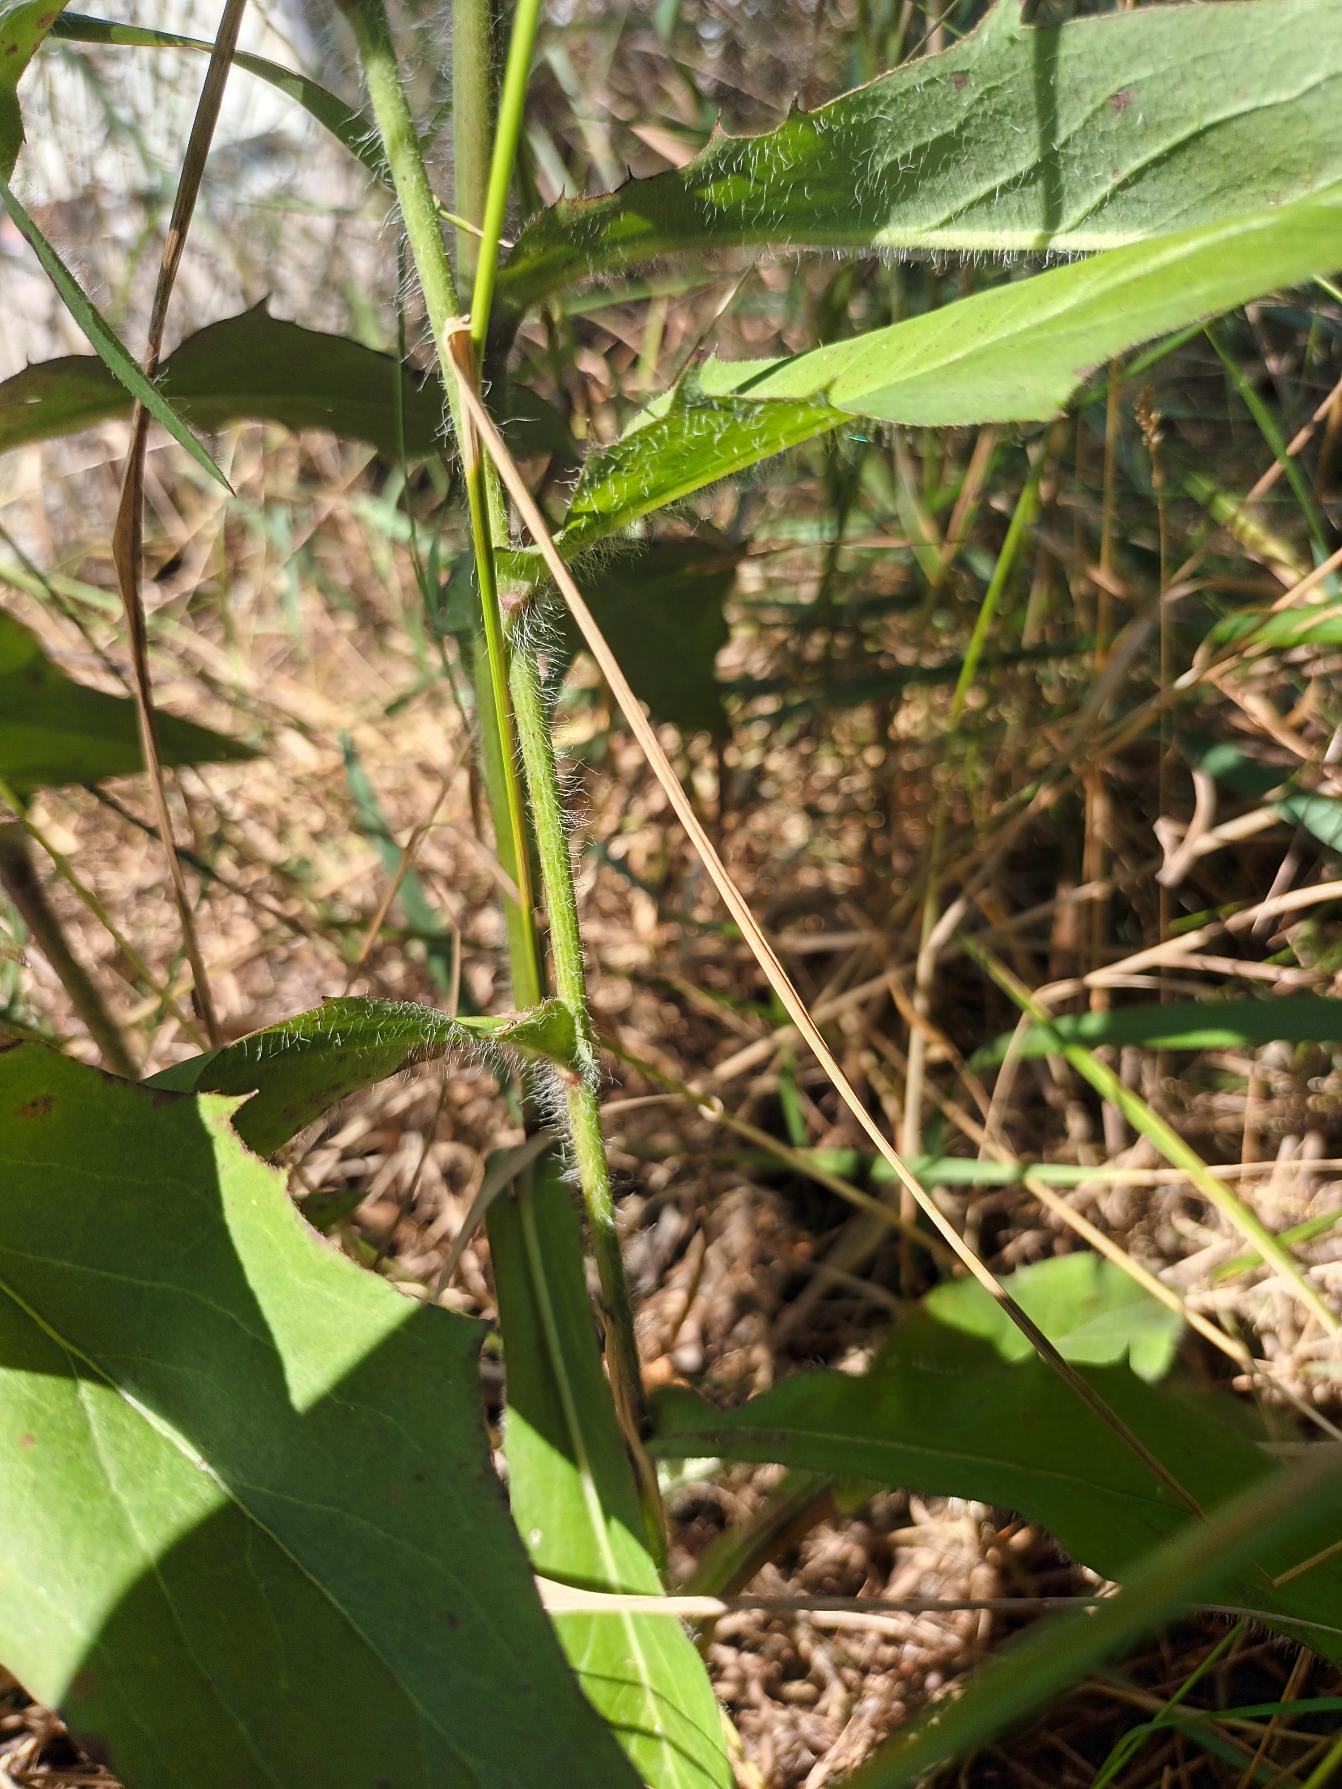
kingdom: Plantae
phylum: Tracheophyta
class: Magnoliopsida
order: Asterales
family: Asteraceae
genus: Hieracium
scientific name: Hieracium sabaudum
